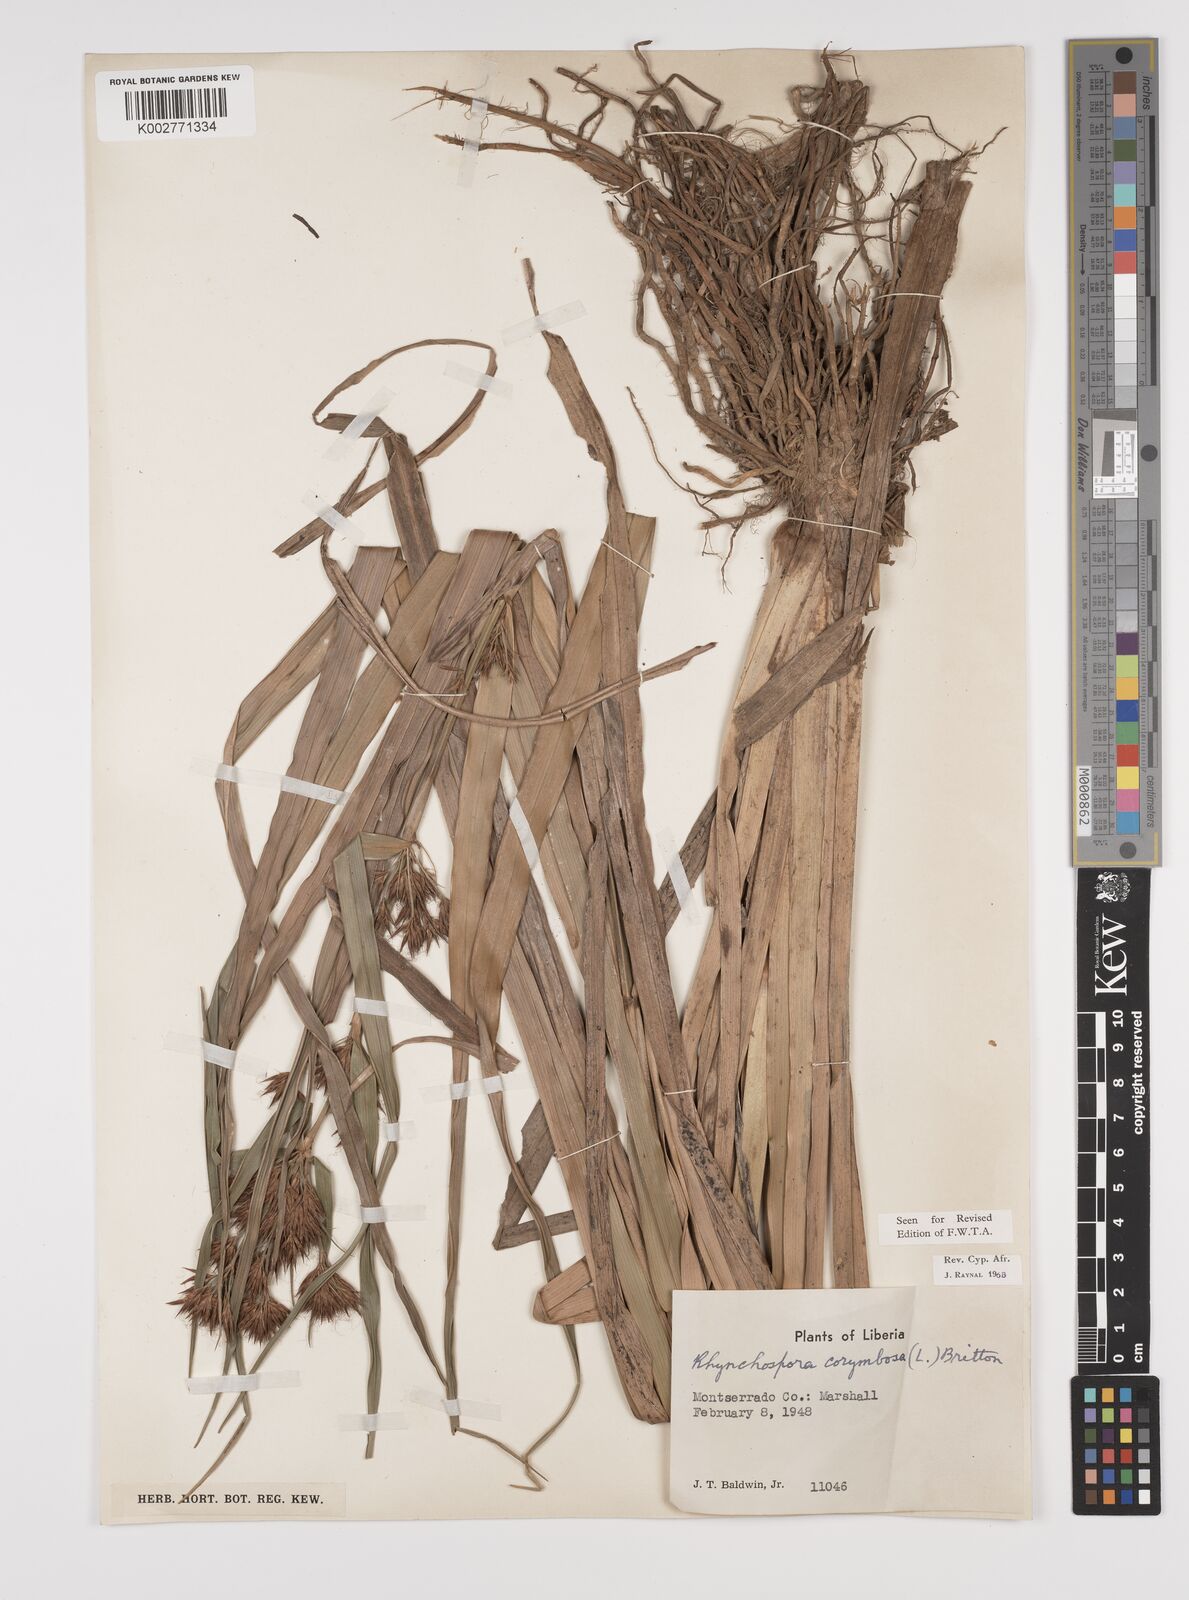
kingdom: Plantae
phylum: Tracheophyta
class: Liliopsida
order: Poales
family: Cyperaceae
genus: Rhynchospora
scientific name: Rhynchospora corymbosa
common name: Golden beak sedge
